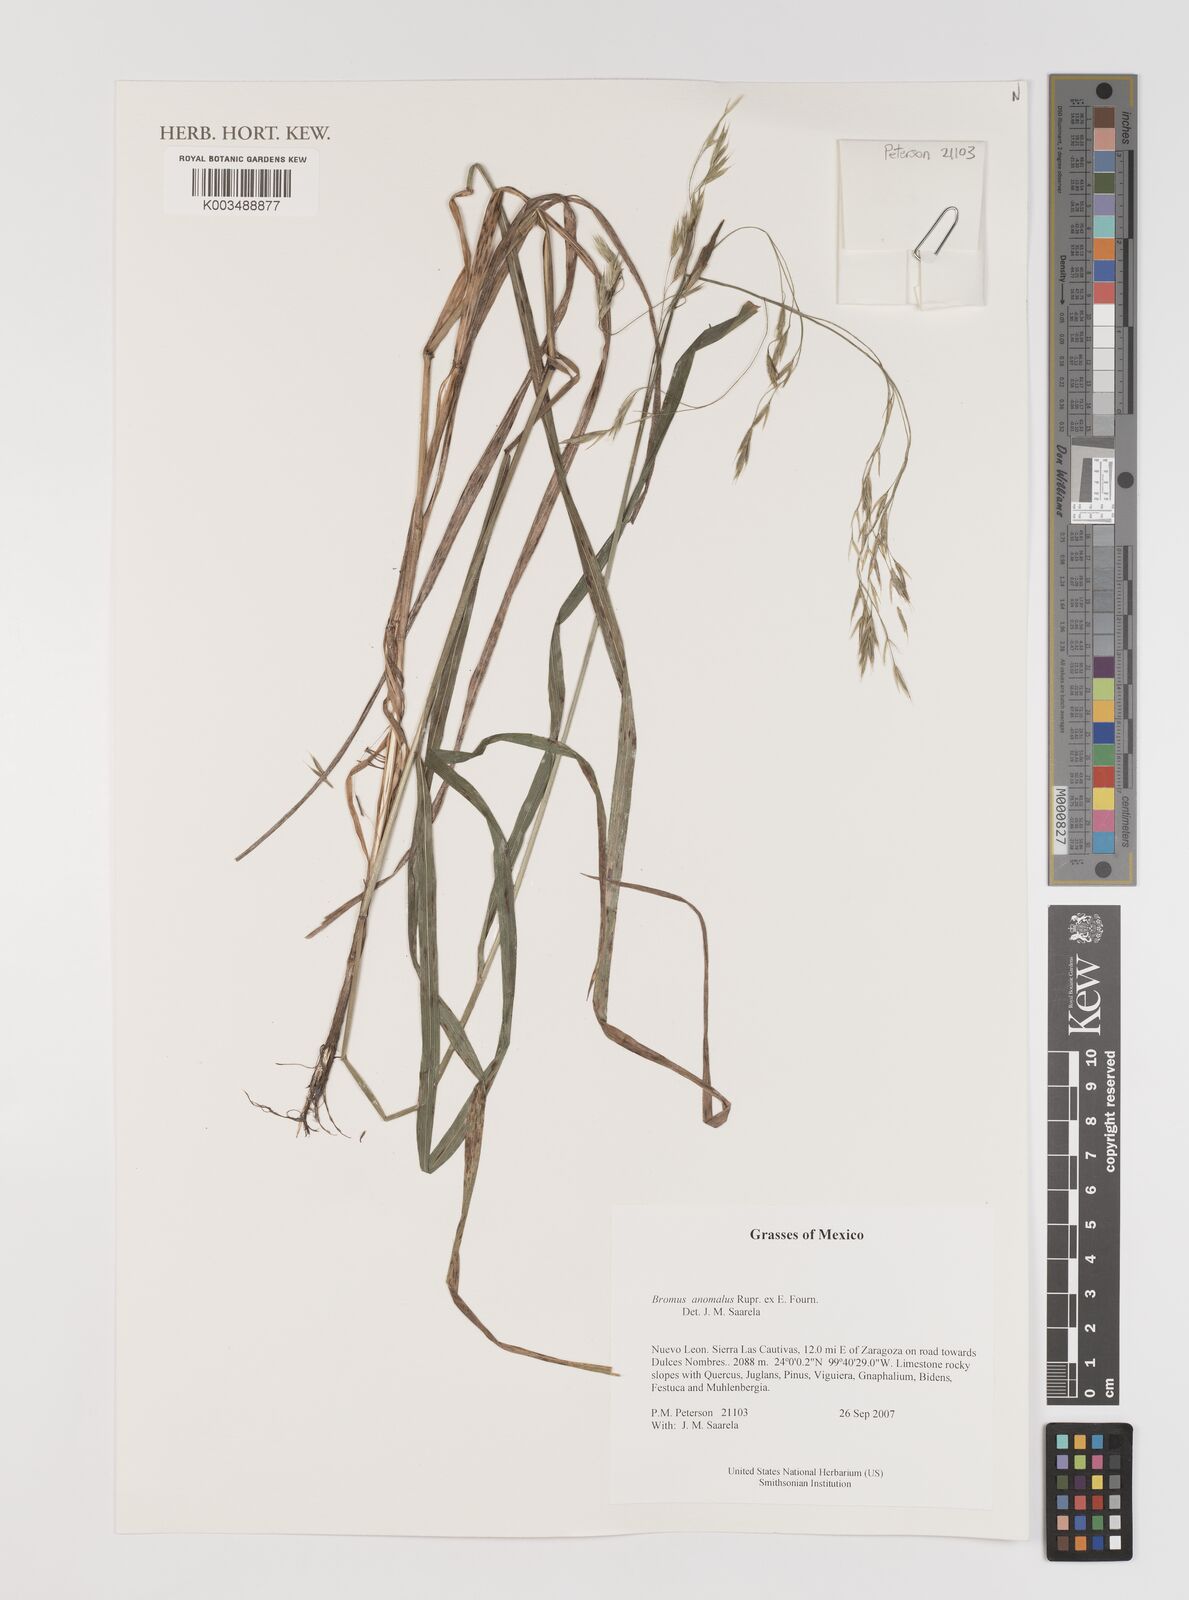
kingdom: Plantae
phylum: Tracheophyta
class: Liliopsida
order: Poales
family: Poaceae
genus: Bromus
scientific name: Bromus anomalus
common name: Nodding brome
